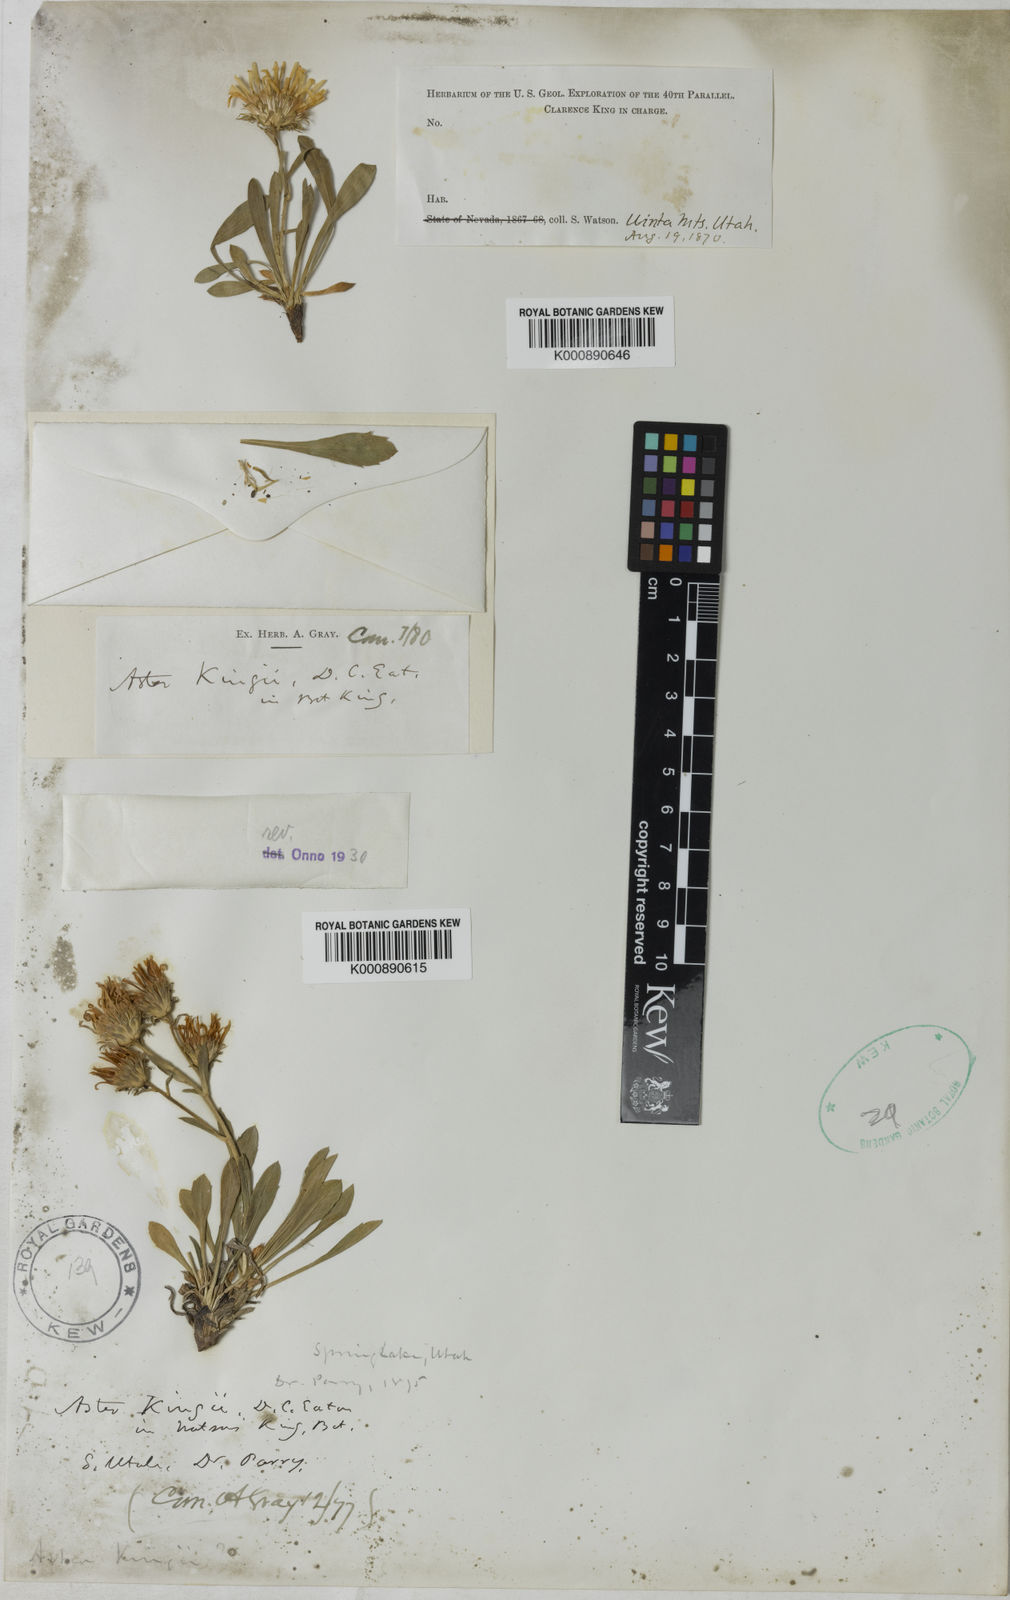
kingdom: Plantae
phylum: Tracheophyta
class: Magnoliopsida
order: Asterales
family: Asteraceae
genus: Eurybia
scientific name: Eurybia kingii
